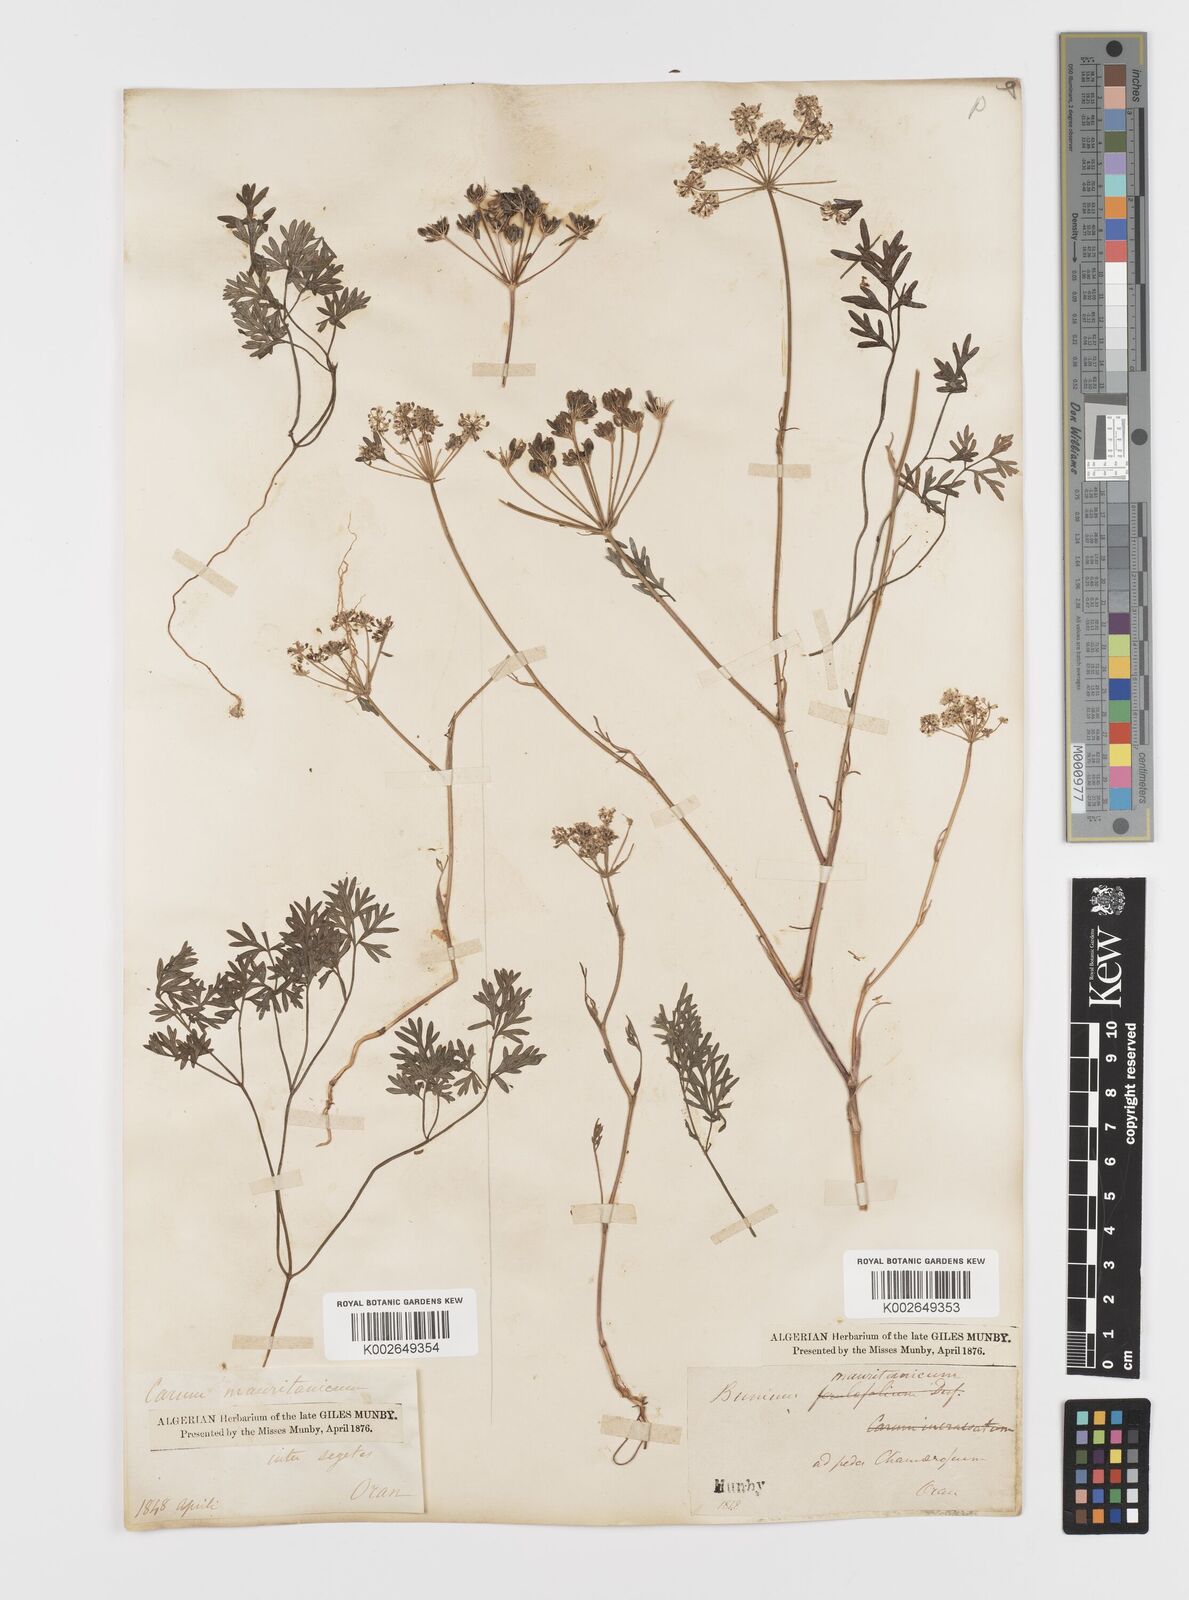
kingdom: Plantae
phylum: Tracheophyta
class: Magnoliopsida
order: Apiales
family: Apiaceae
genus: Bunium
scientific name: Bunium fontanesii
